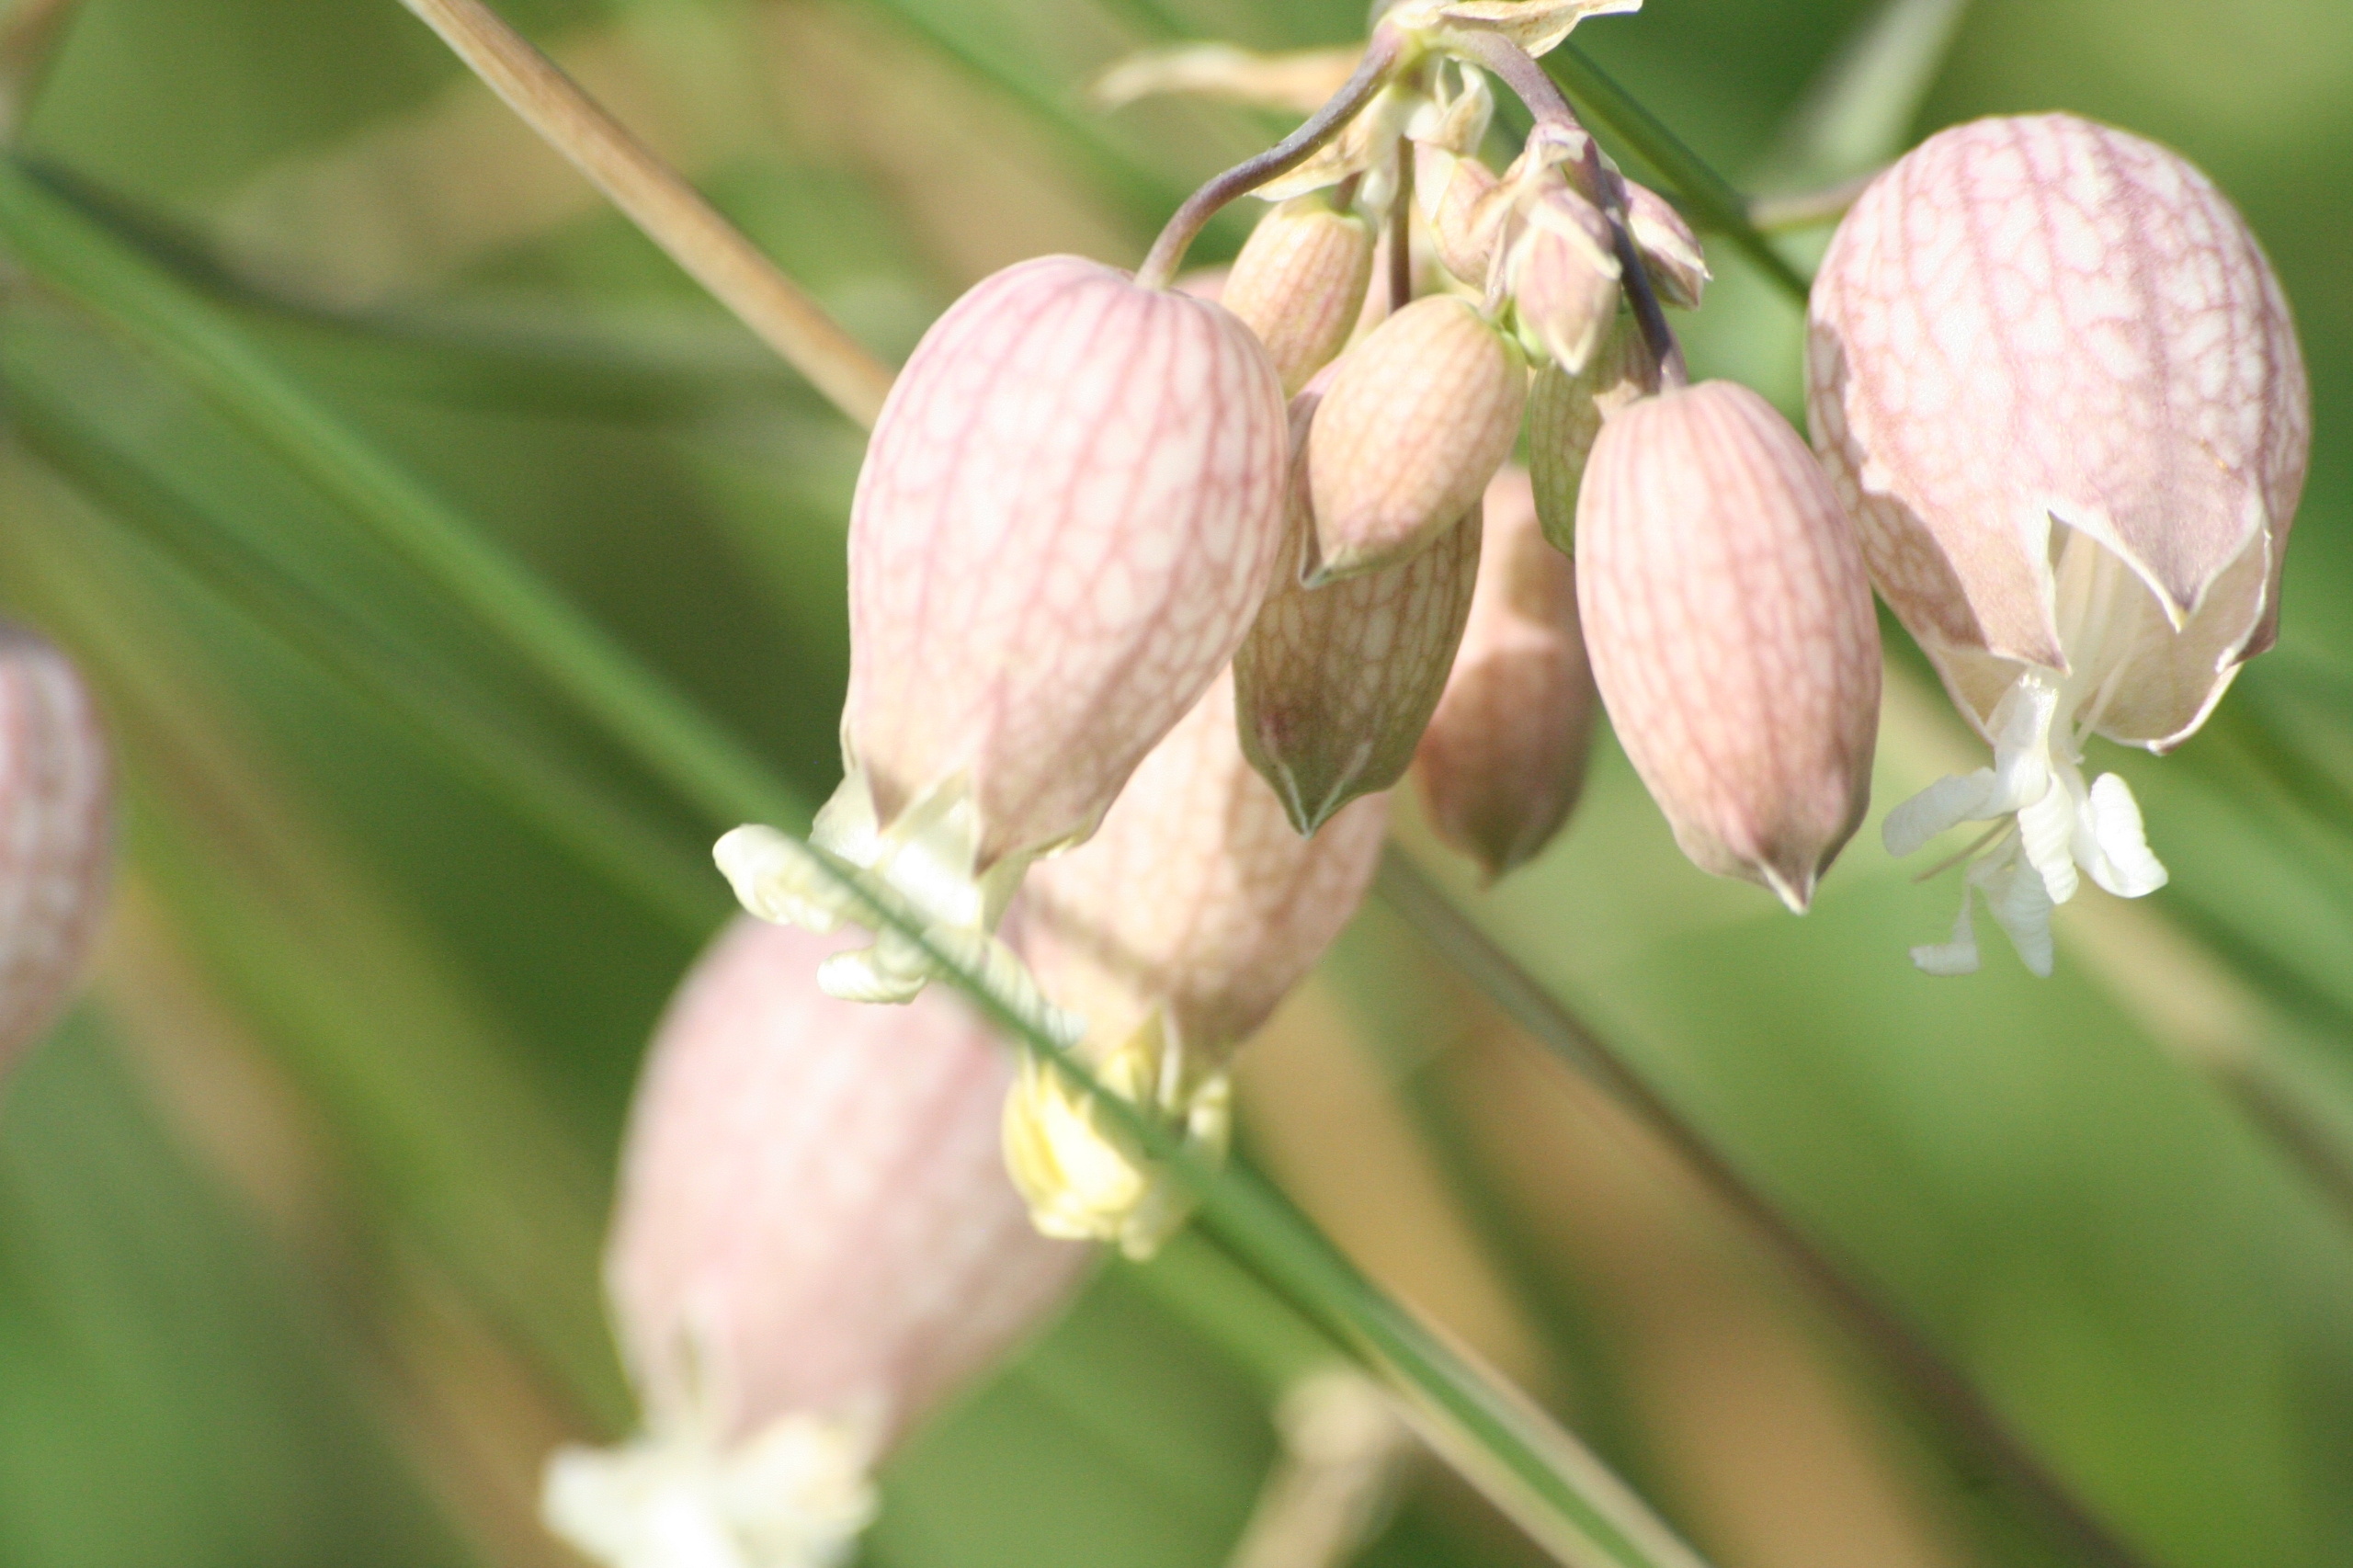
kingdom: Plantae
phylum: Tracheophyta
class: Magnoliopsida
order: Caryophyllales
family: Caryophyllaceae
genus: Silene
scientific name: Silene vulgaris
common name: Blæresmælde
